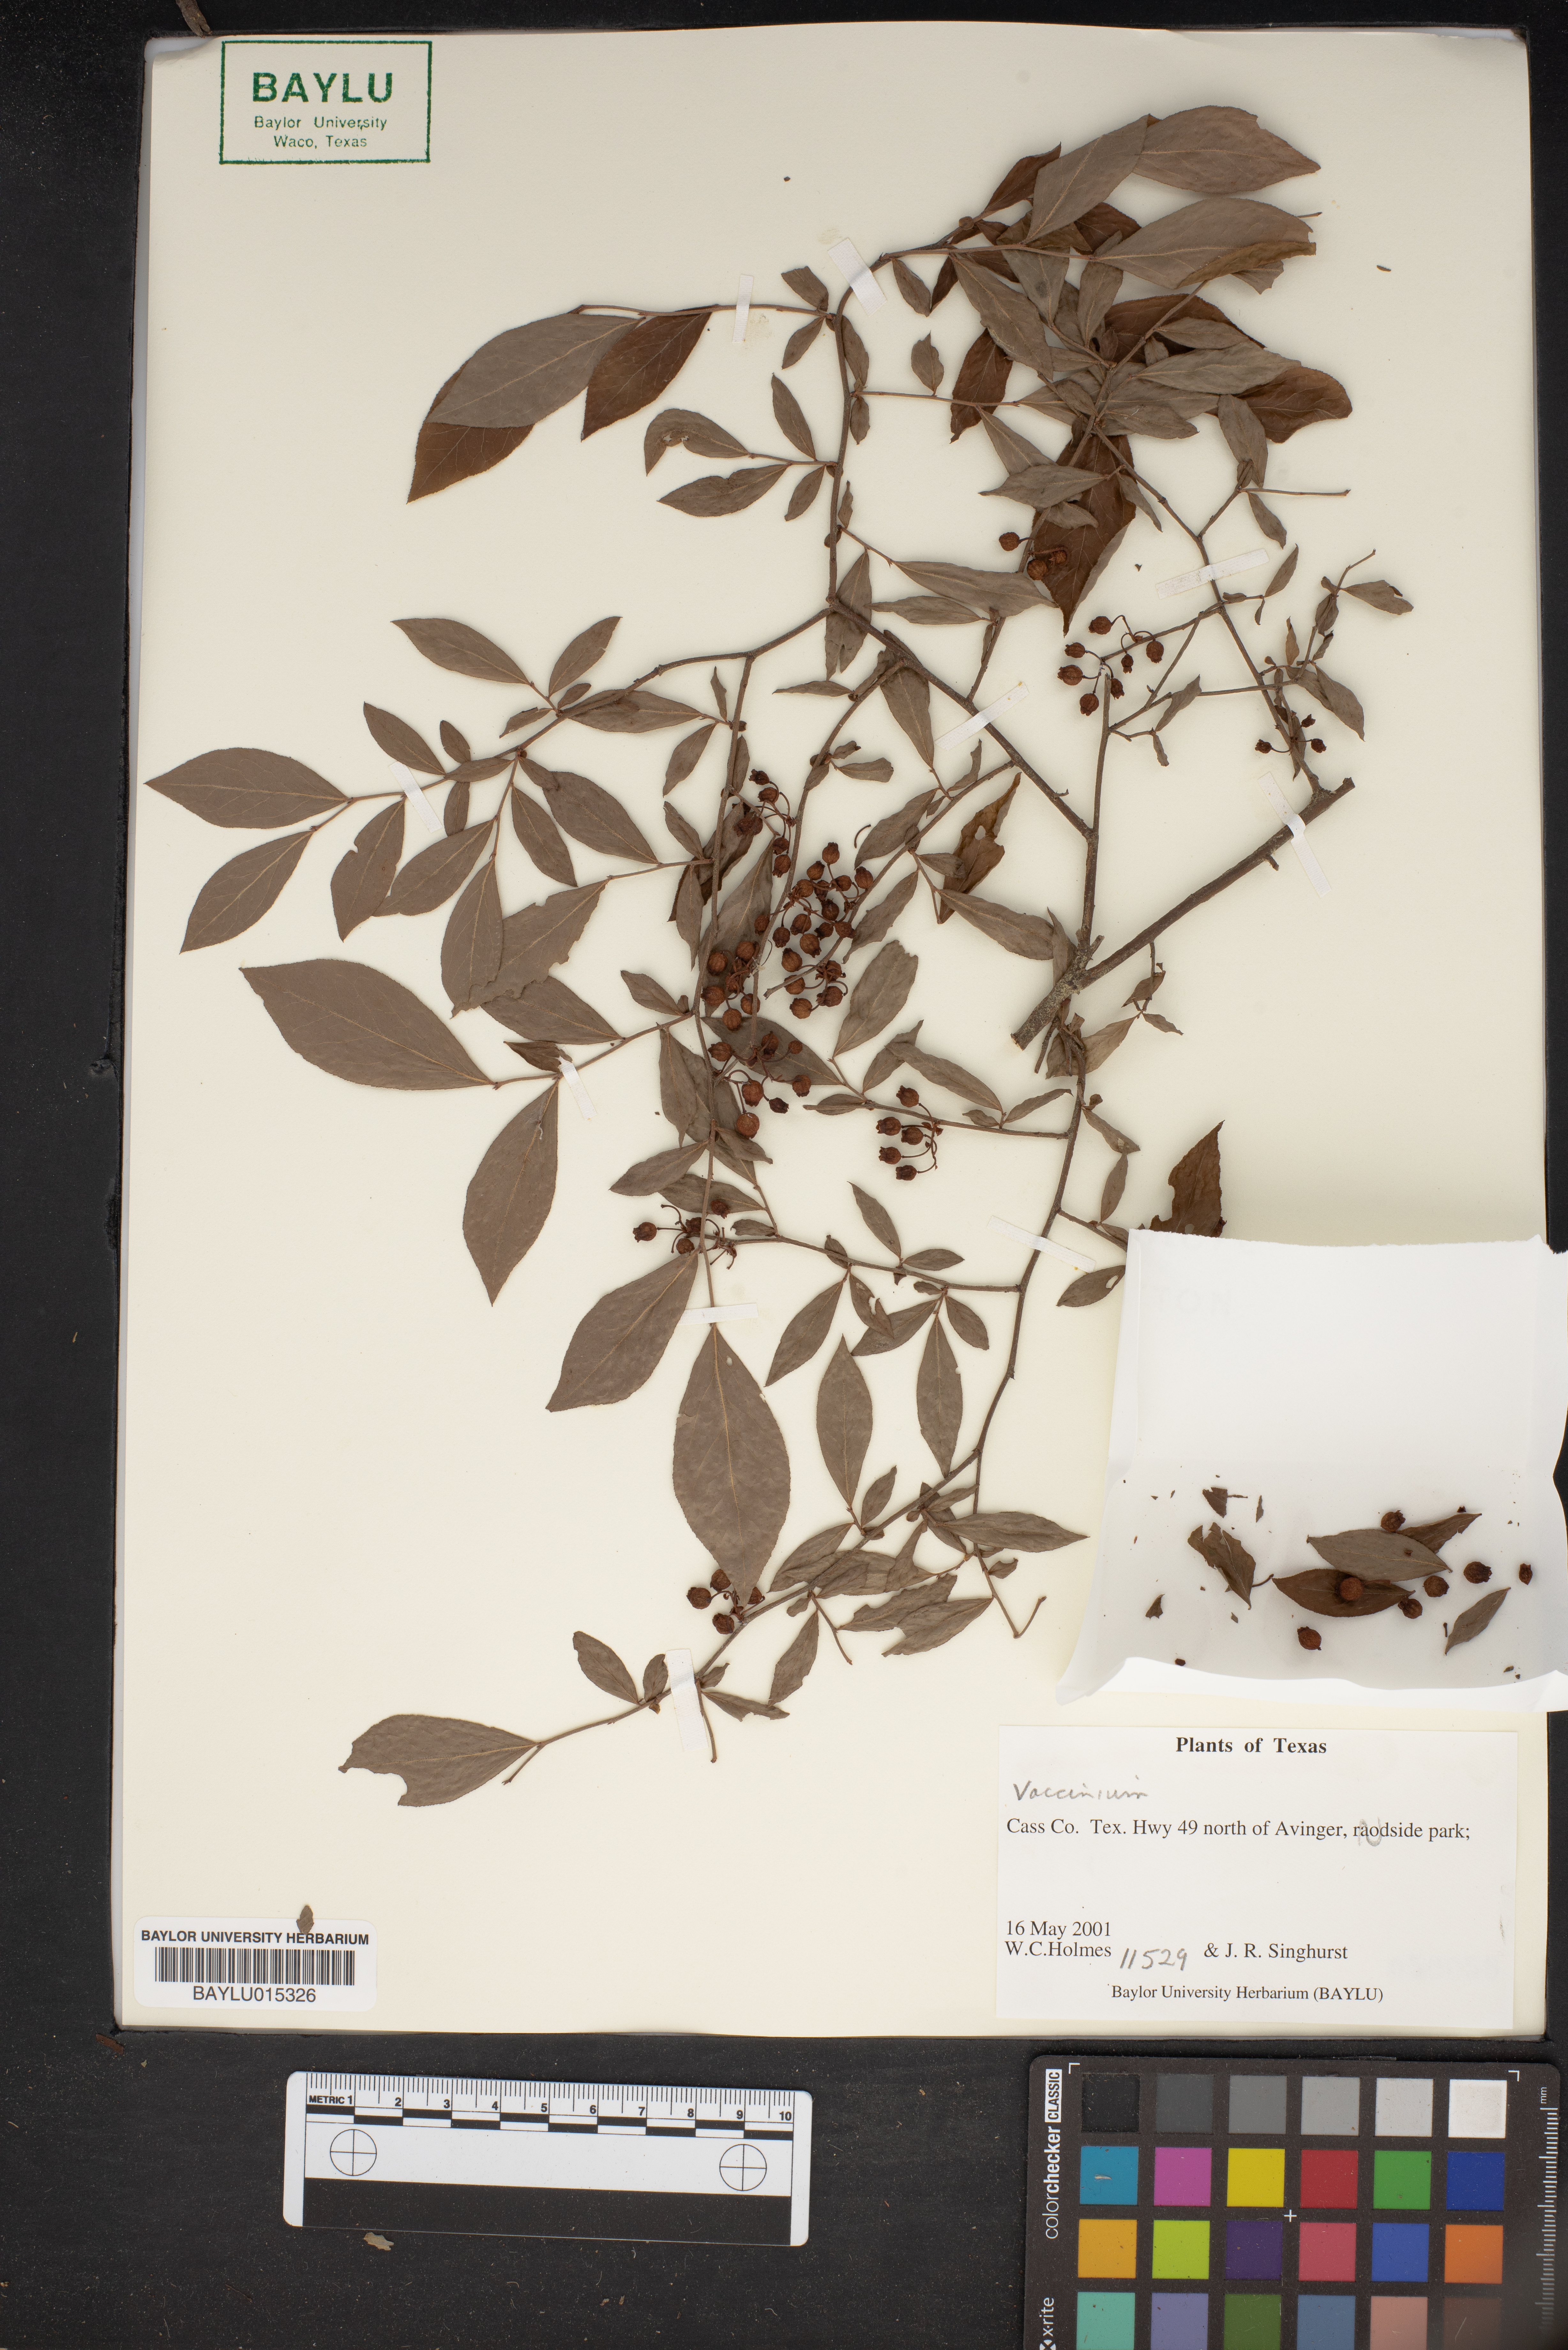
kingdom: Plantae
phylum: Tracheophyta
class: Magnoliopsida
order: Ericales
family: Ericaceae
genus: Vaccinium
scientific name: Vaccinium
